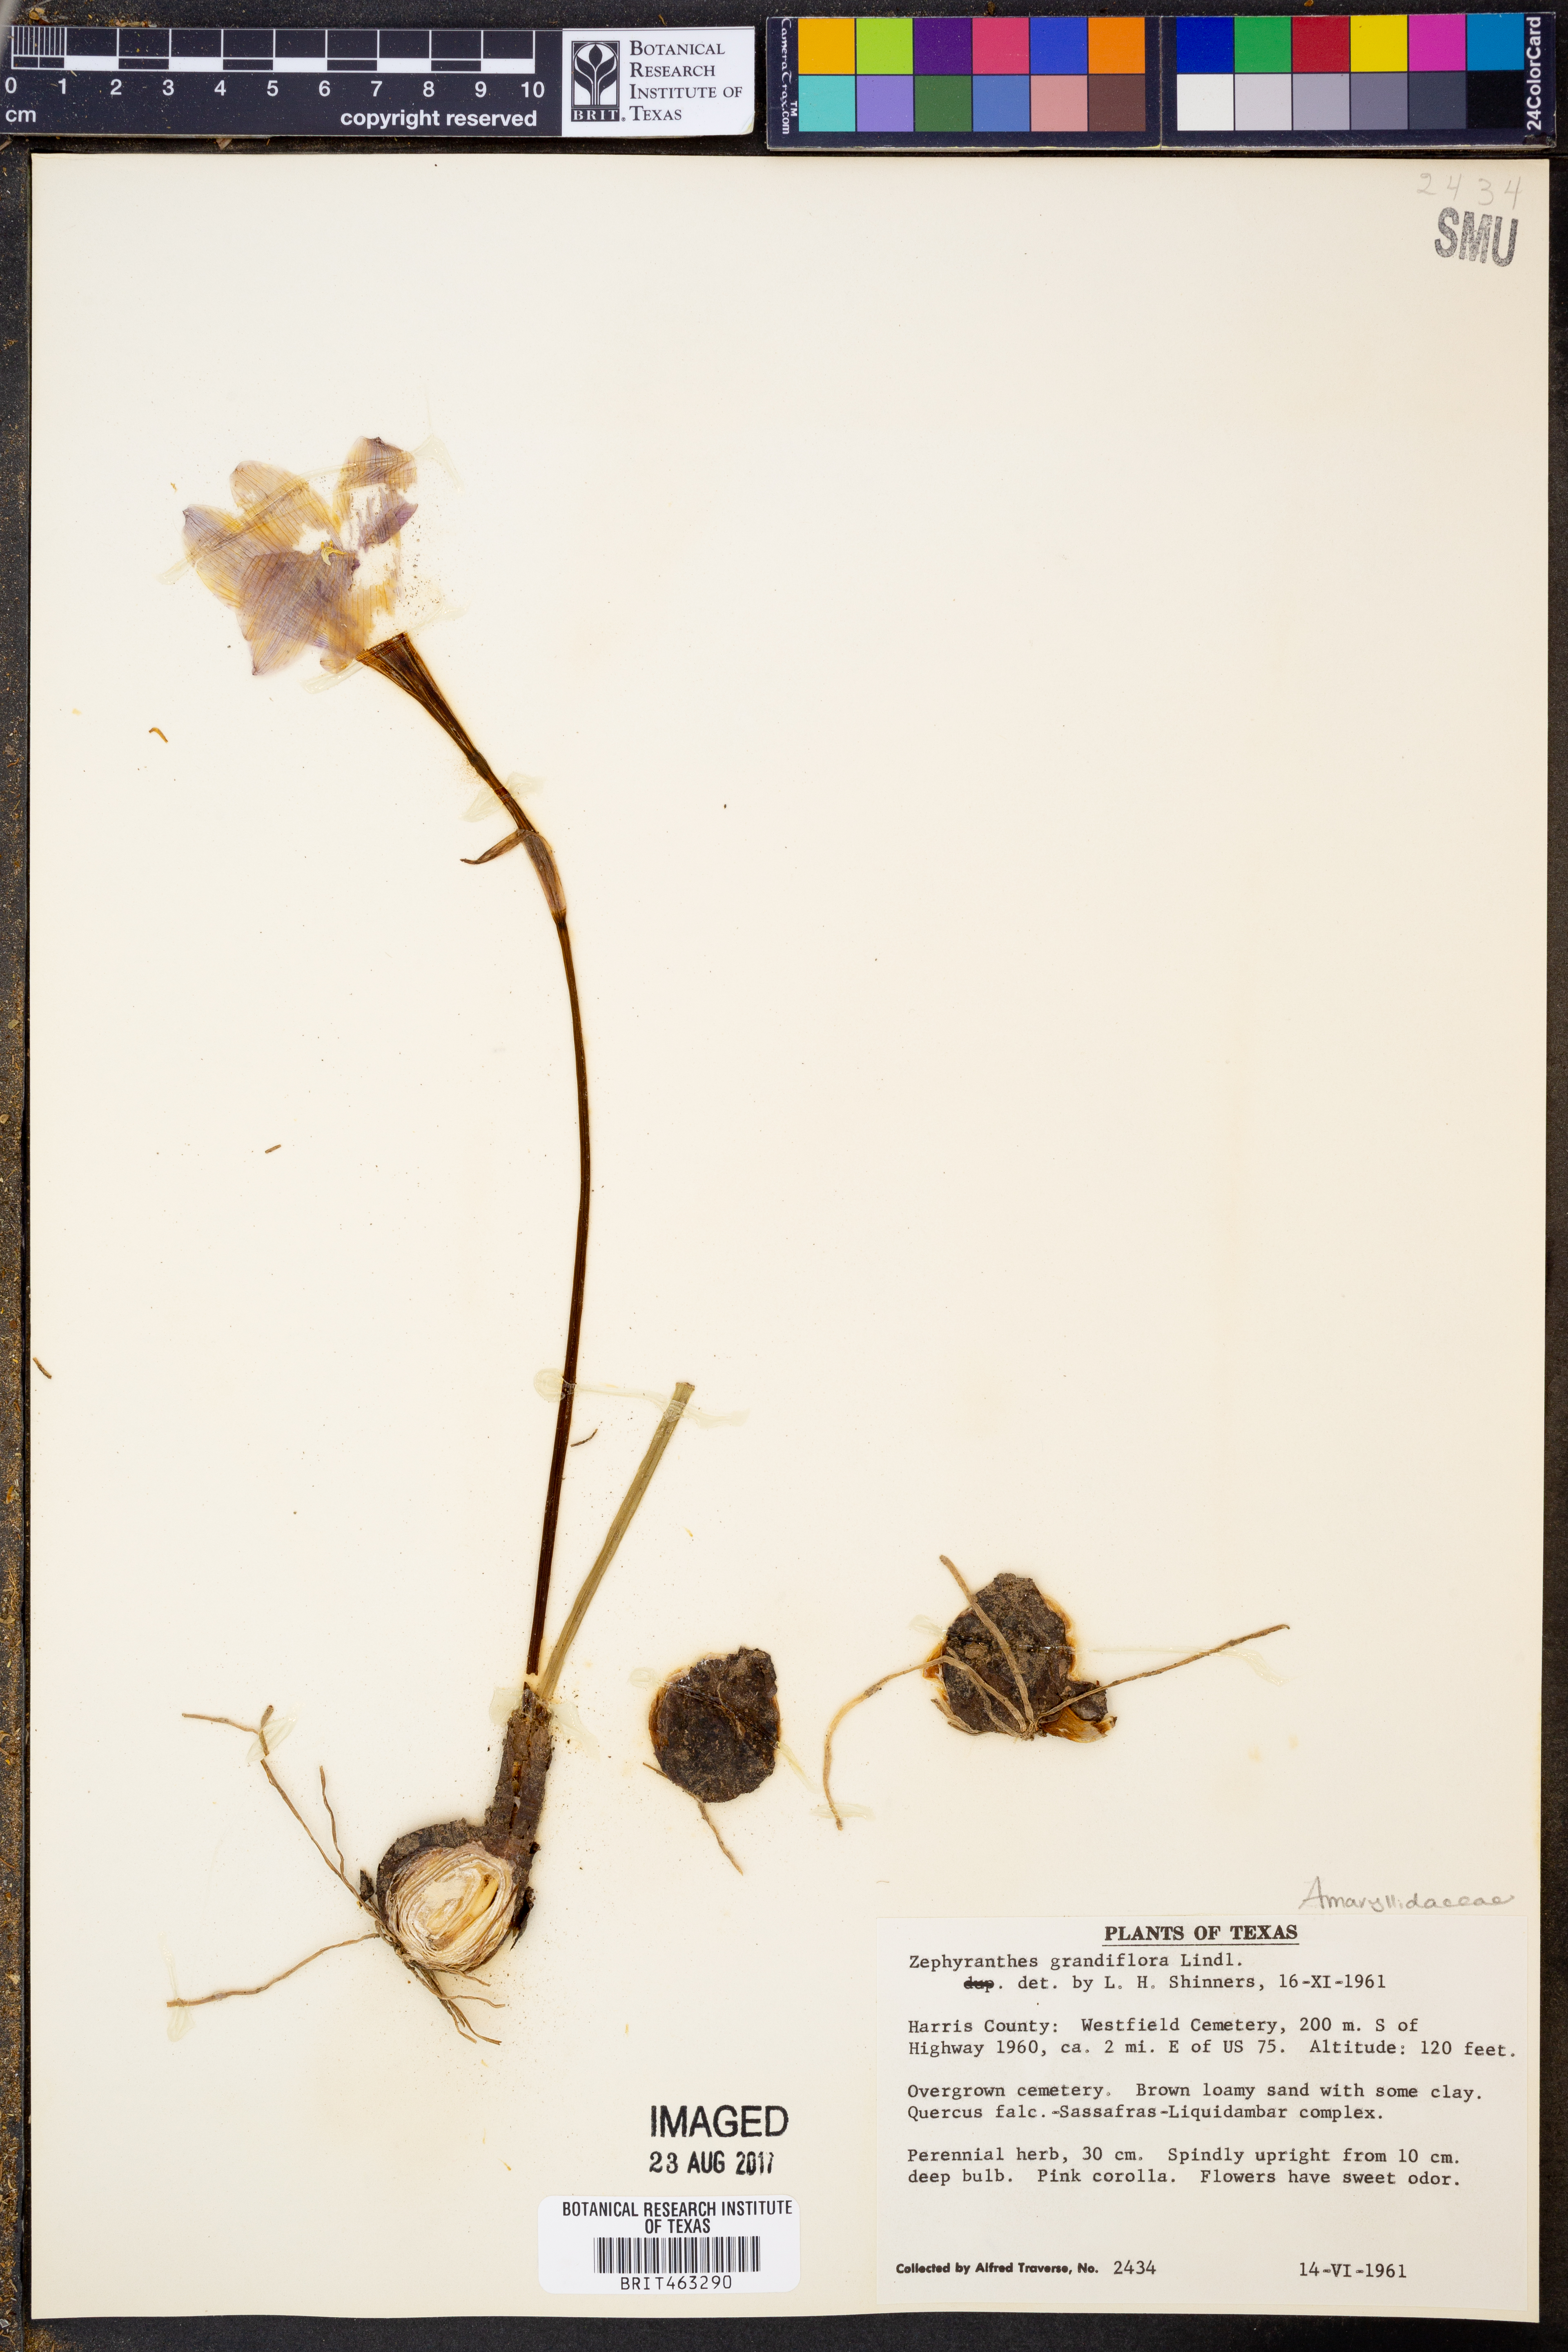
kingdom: Plantae
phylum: Tracheophyta
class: Liliopsida
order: Asparagales
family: Amaryllidaceae
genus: Zephyranthes
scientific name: Zephyranthes minuta
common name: Pink rain lily
